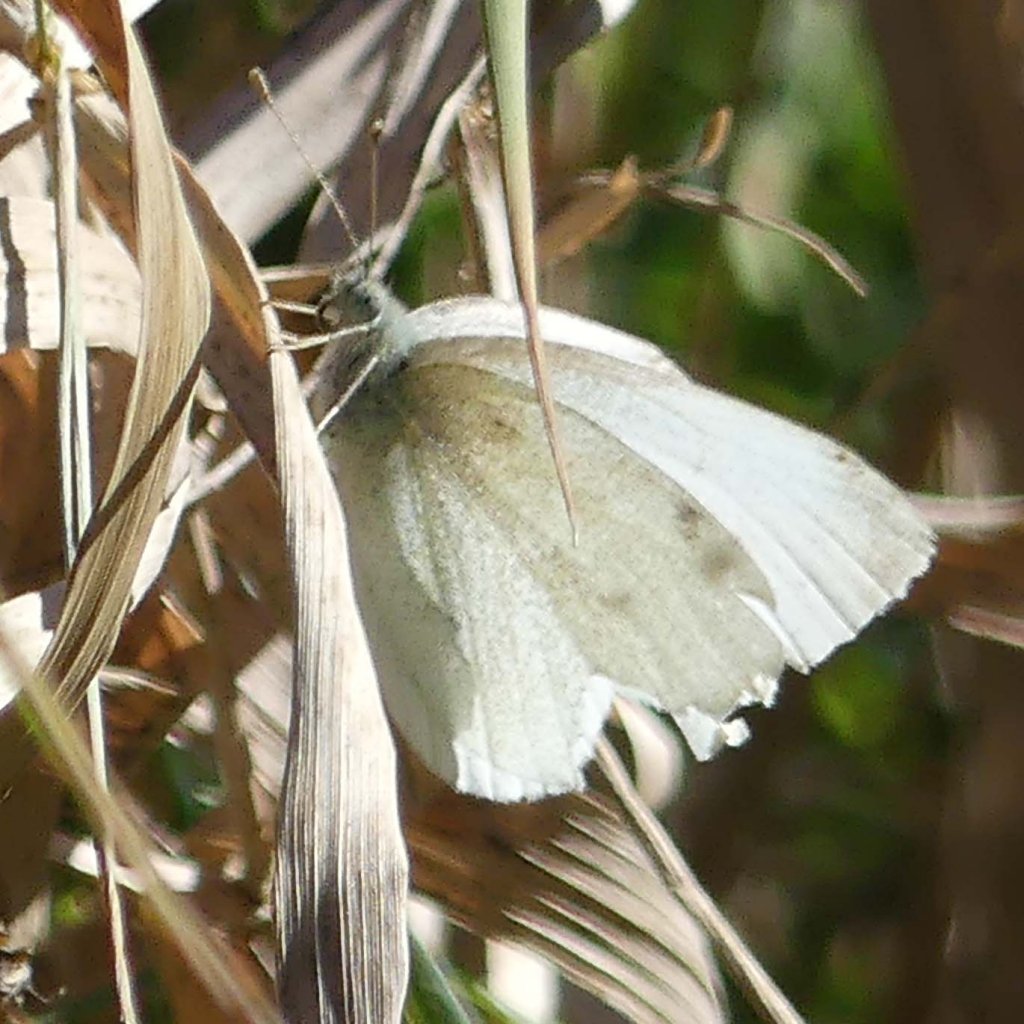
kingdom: Animalia
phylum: Arthropoda
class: Insecta
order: Lepidoptera
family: Pieridae
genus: Pieris
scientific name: Pieris rapae
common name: Cabbage White
